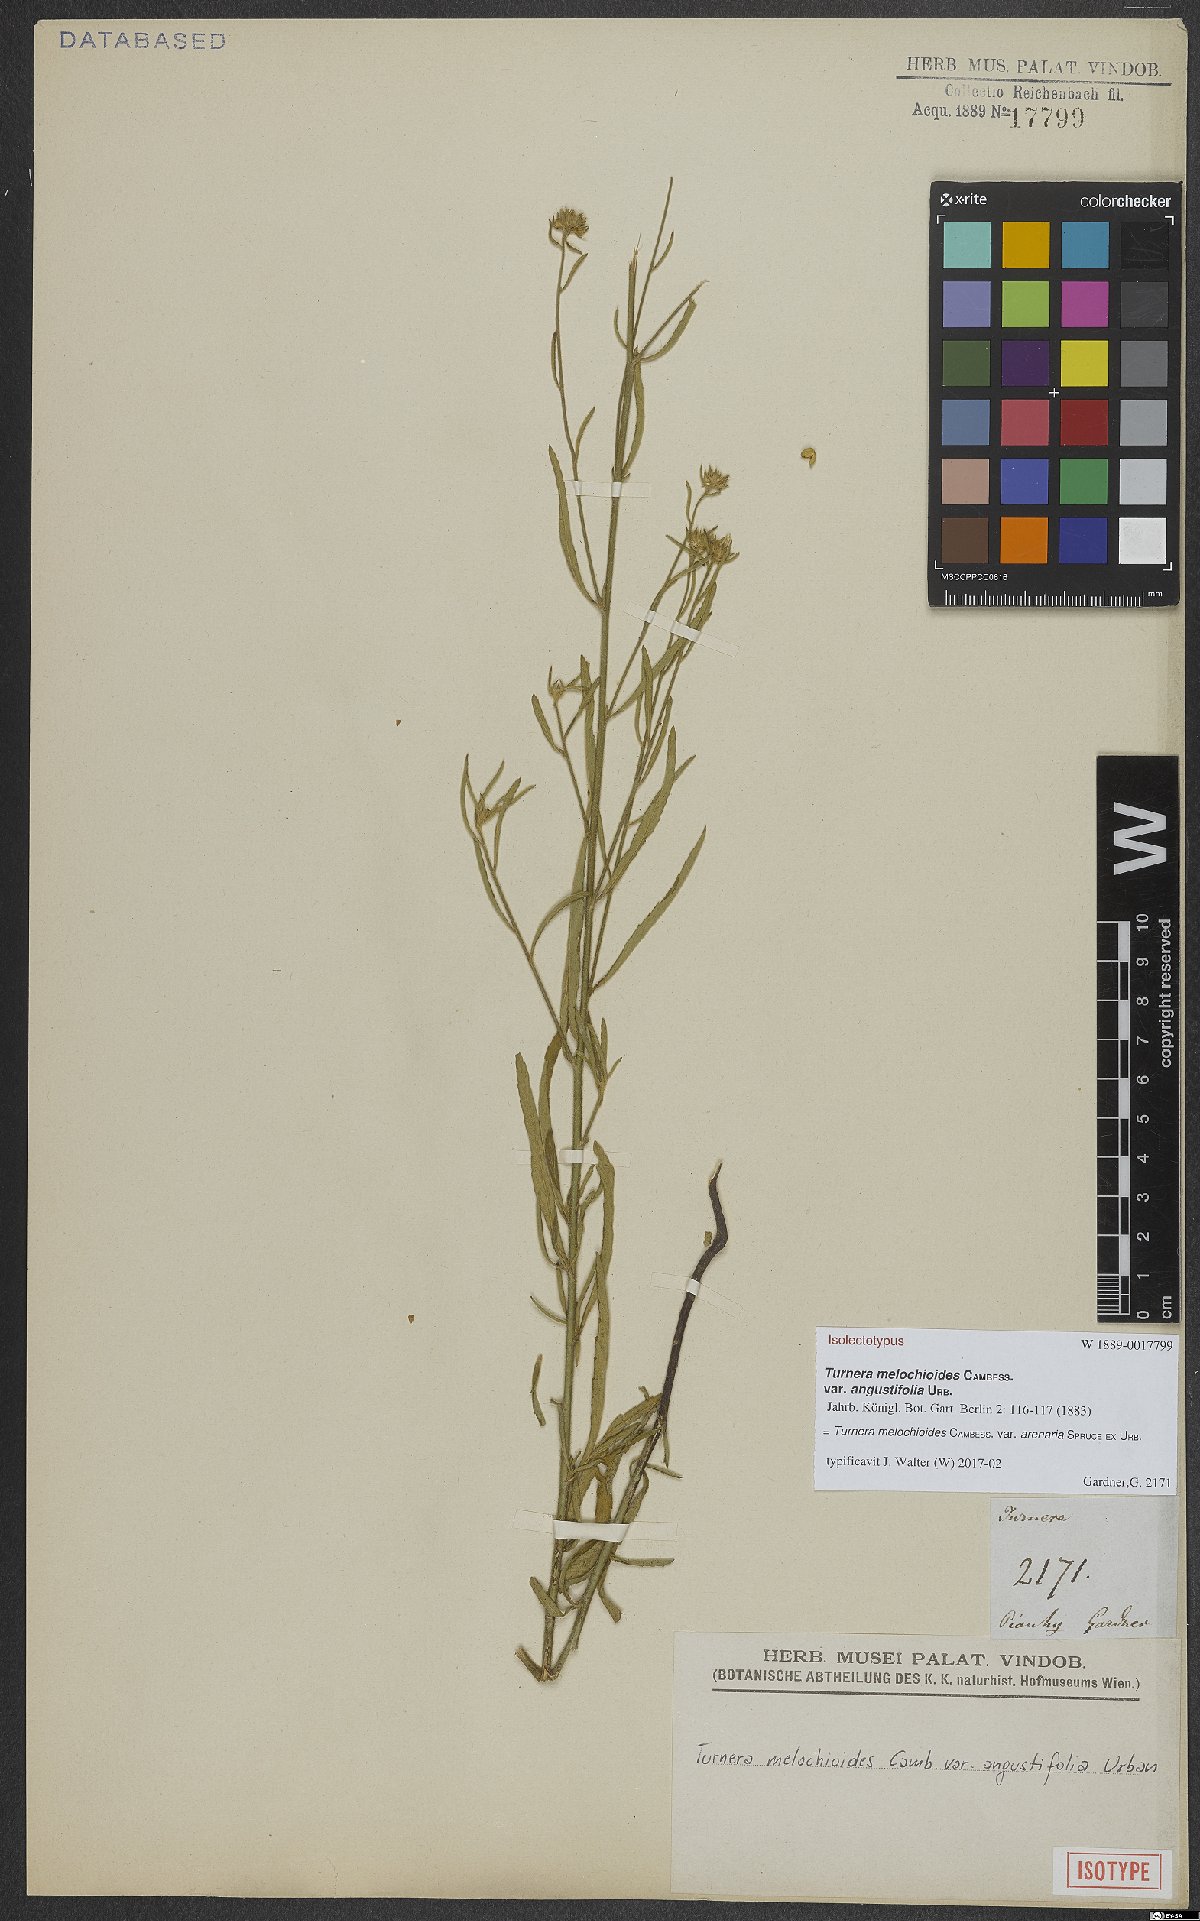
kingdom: Plantae
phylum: Tracheophyta
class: Magnoliopsida
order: Malpighiales
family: Turneraceae
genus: Turnera
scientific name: Turnera arenaria
